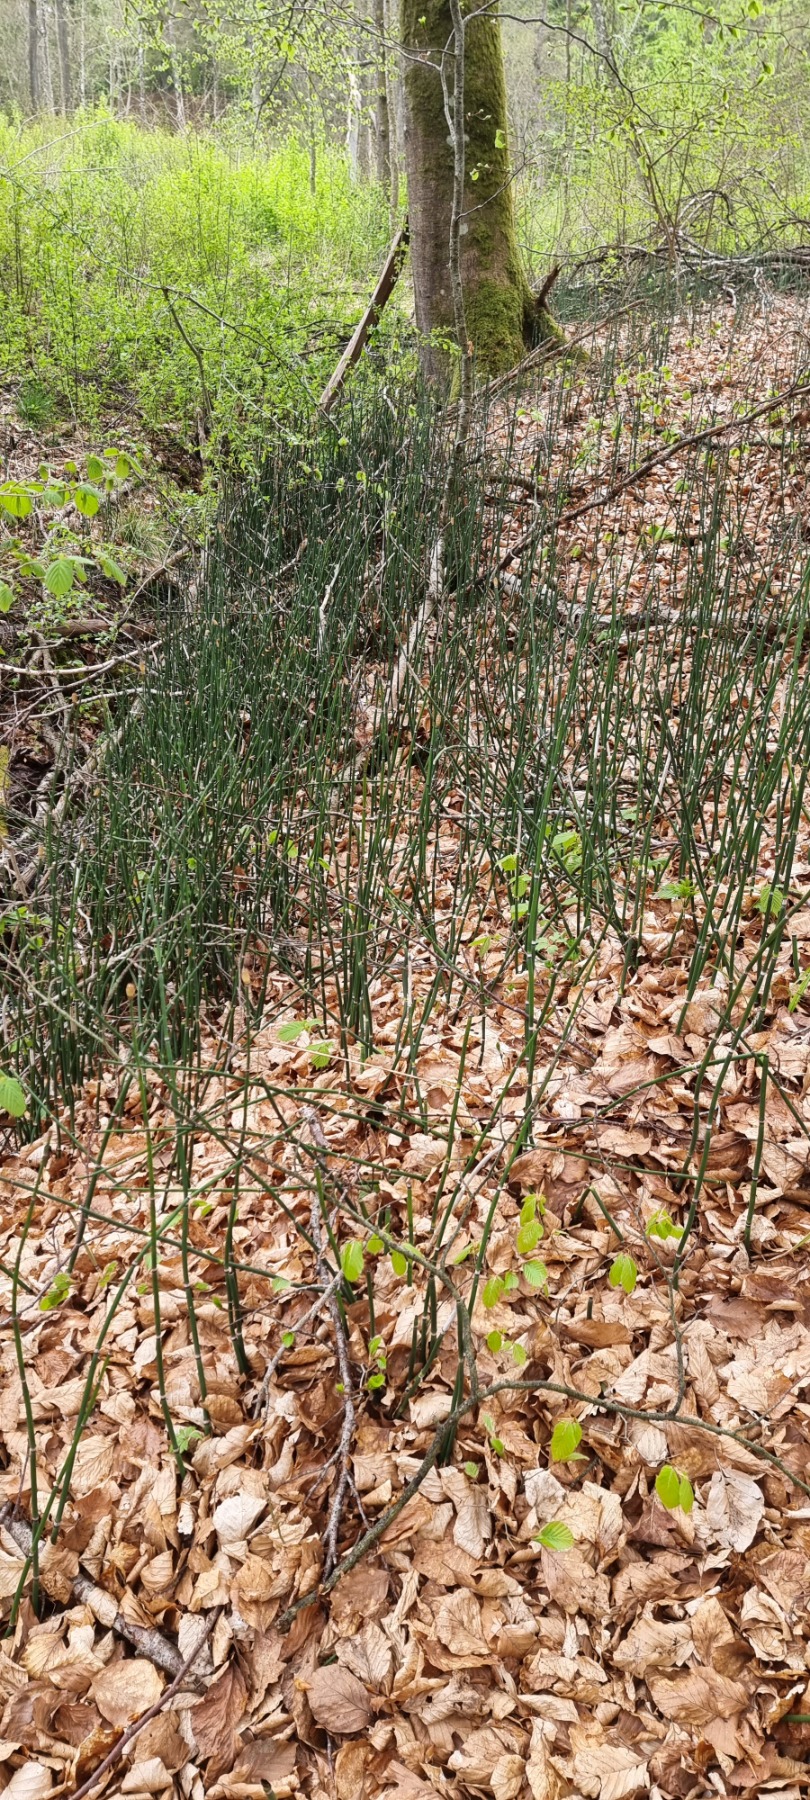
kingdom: Plantae
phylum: Tracheophyta
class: Polypodiopsida
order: Equisetales
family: Equisetaceae
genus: Equisetum
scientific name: Equisetum hyemale
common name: Skavgræs
